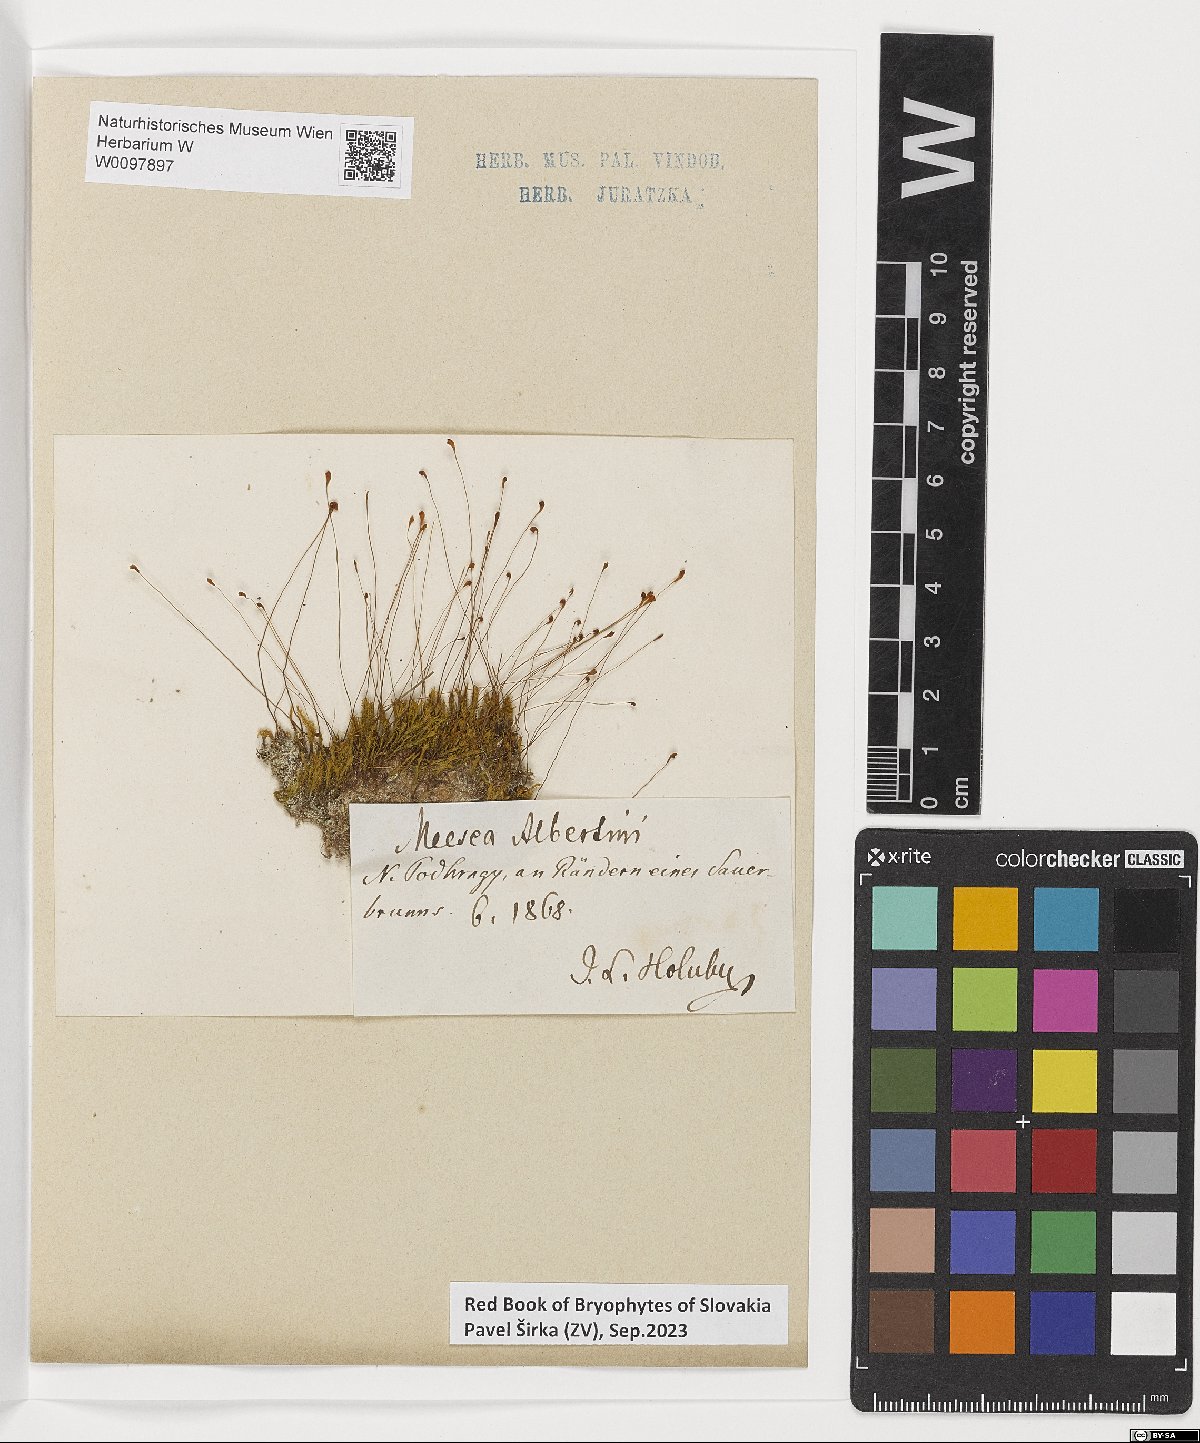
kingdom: Plantae
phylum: Bryophyta
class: Bryopsida
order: Splachnales
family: Meesiaceae
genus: Meesia
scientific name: Meesia hexasticha
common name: Triangular-leaved thread moss
